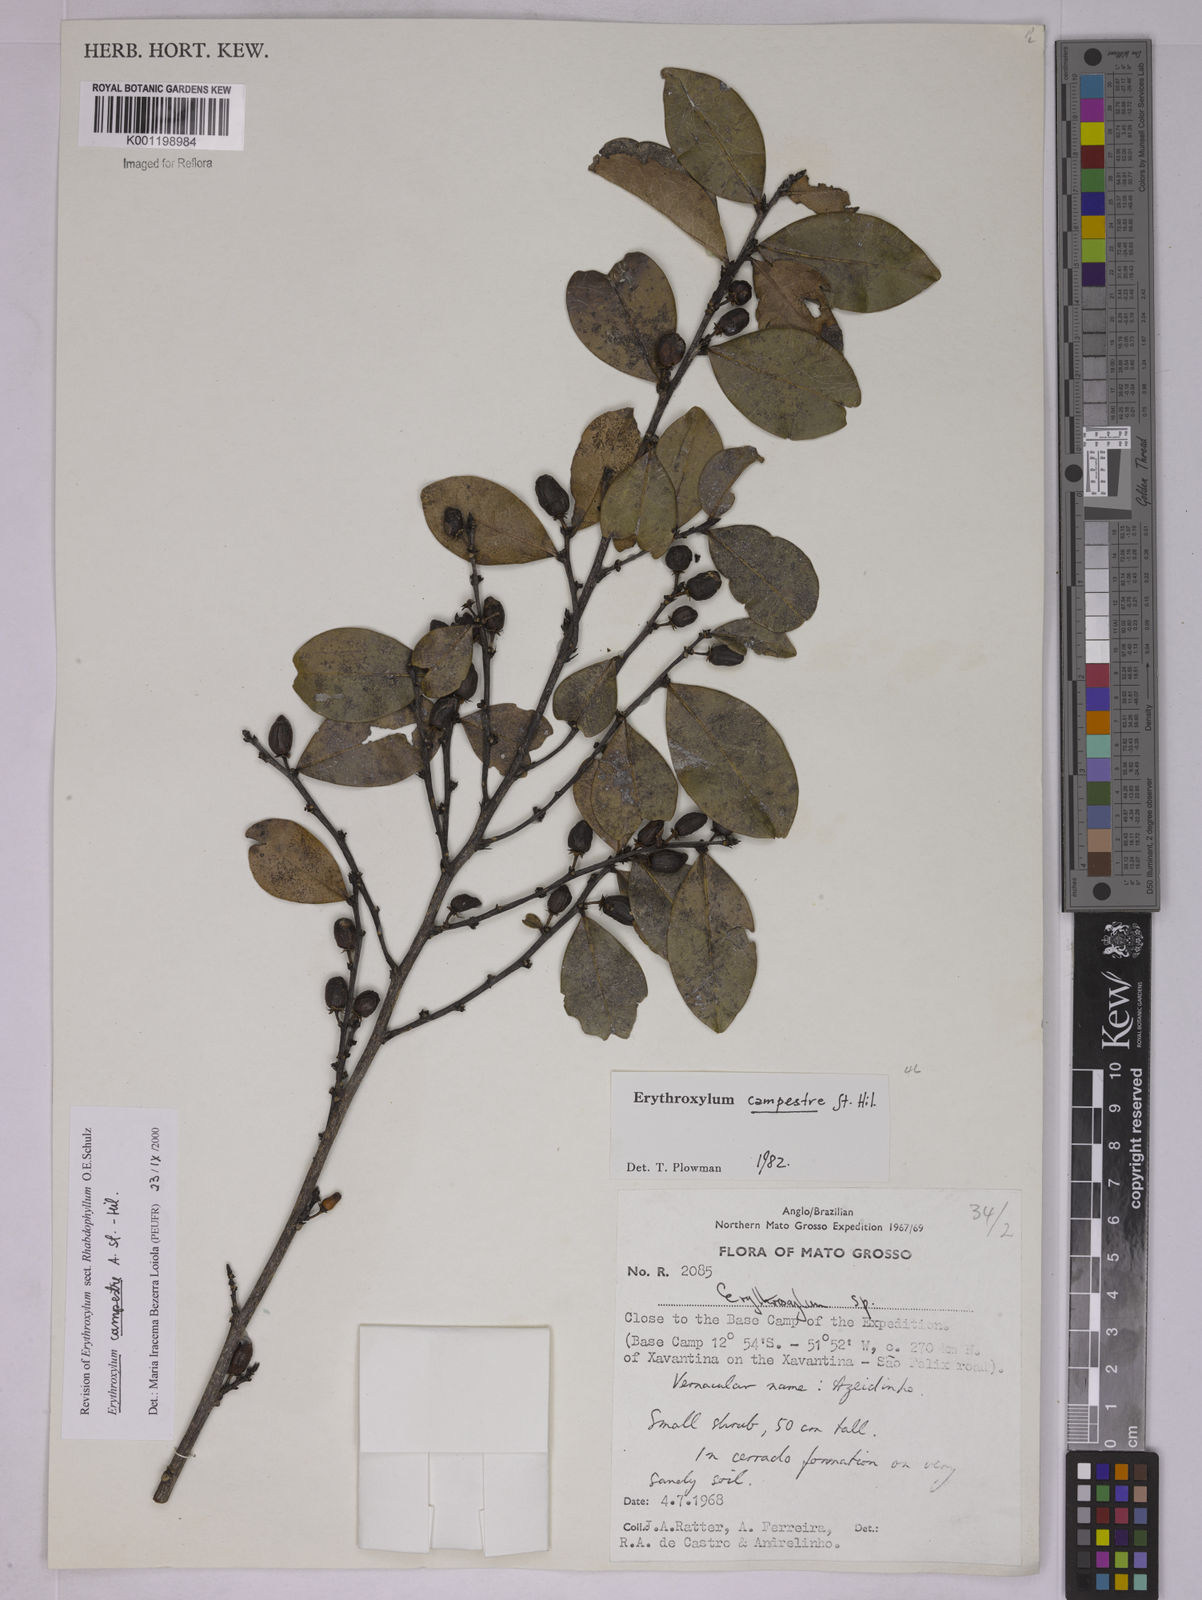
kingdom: Plantae
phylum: Tracheophyta
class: Magnoliopsida
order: Malpighiales
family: Erythroxylaceae
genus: Erythroxylum
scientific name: Erythroxylum campestre
